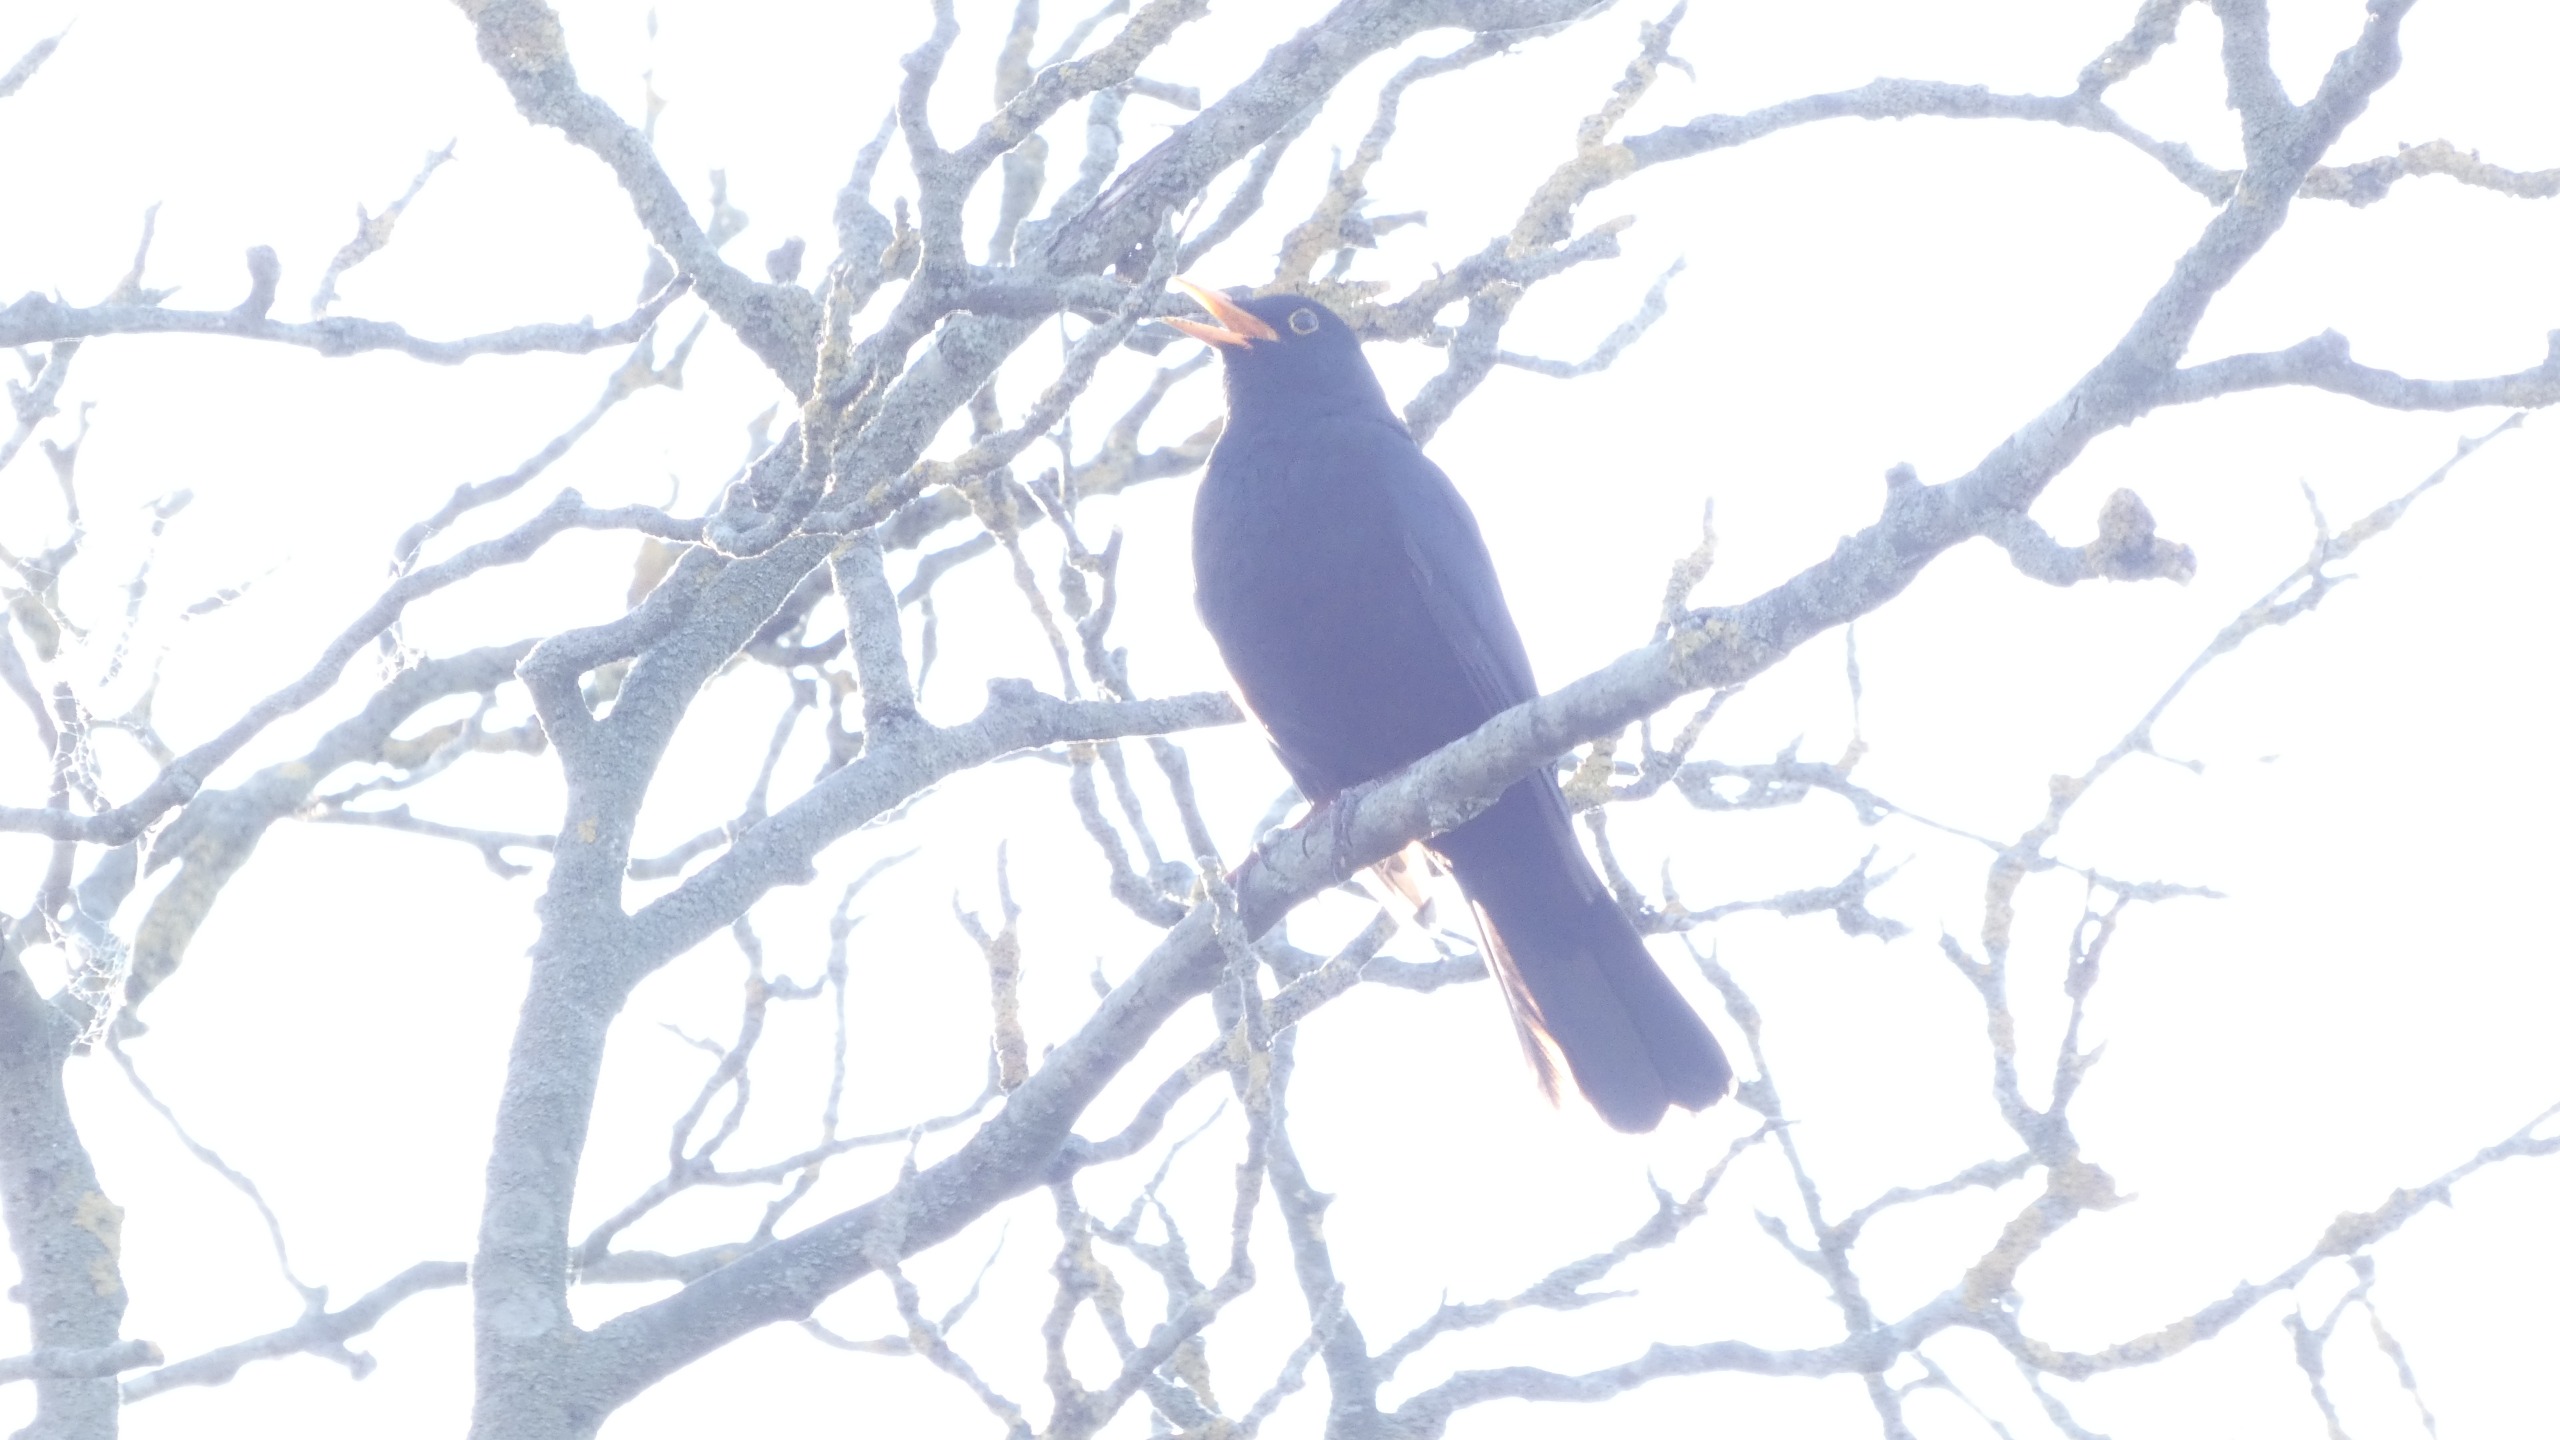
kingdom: Animalia
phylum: Chordata
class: Aves
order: Passeriformes
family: Turdidae
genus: Turdus
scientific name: Turdus merula
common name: Solsort
